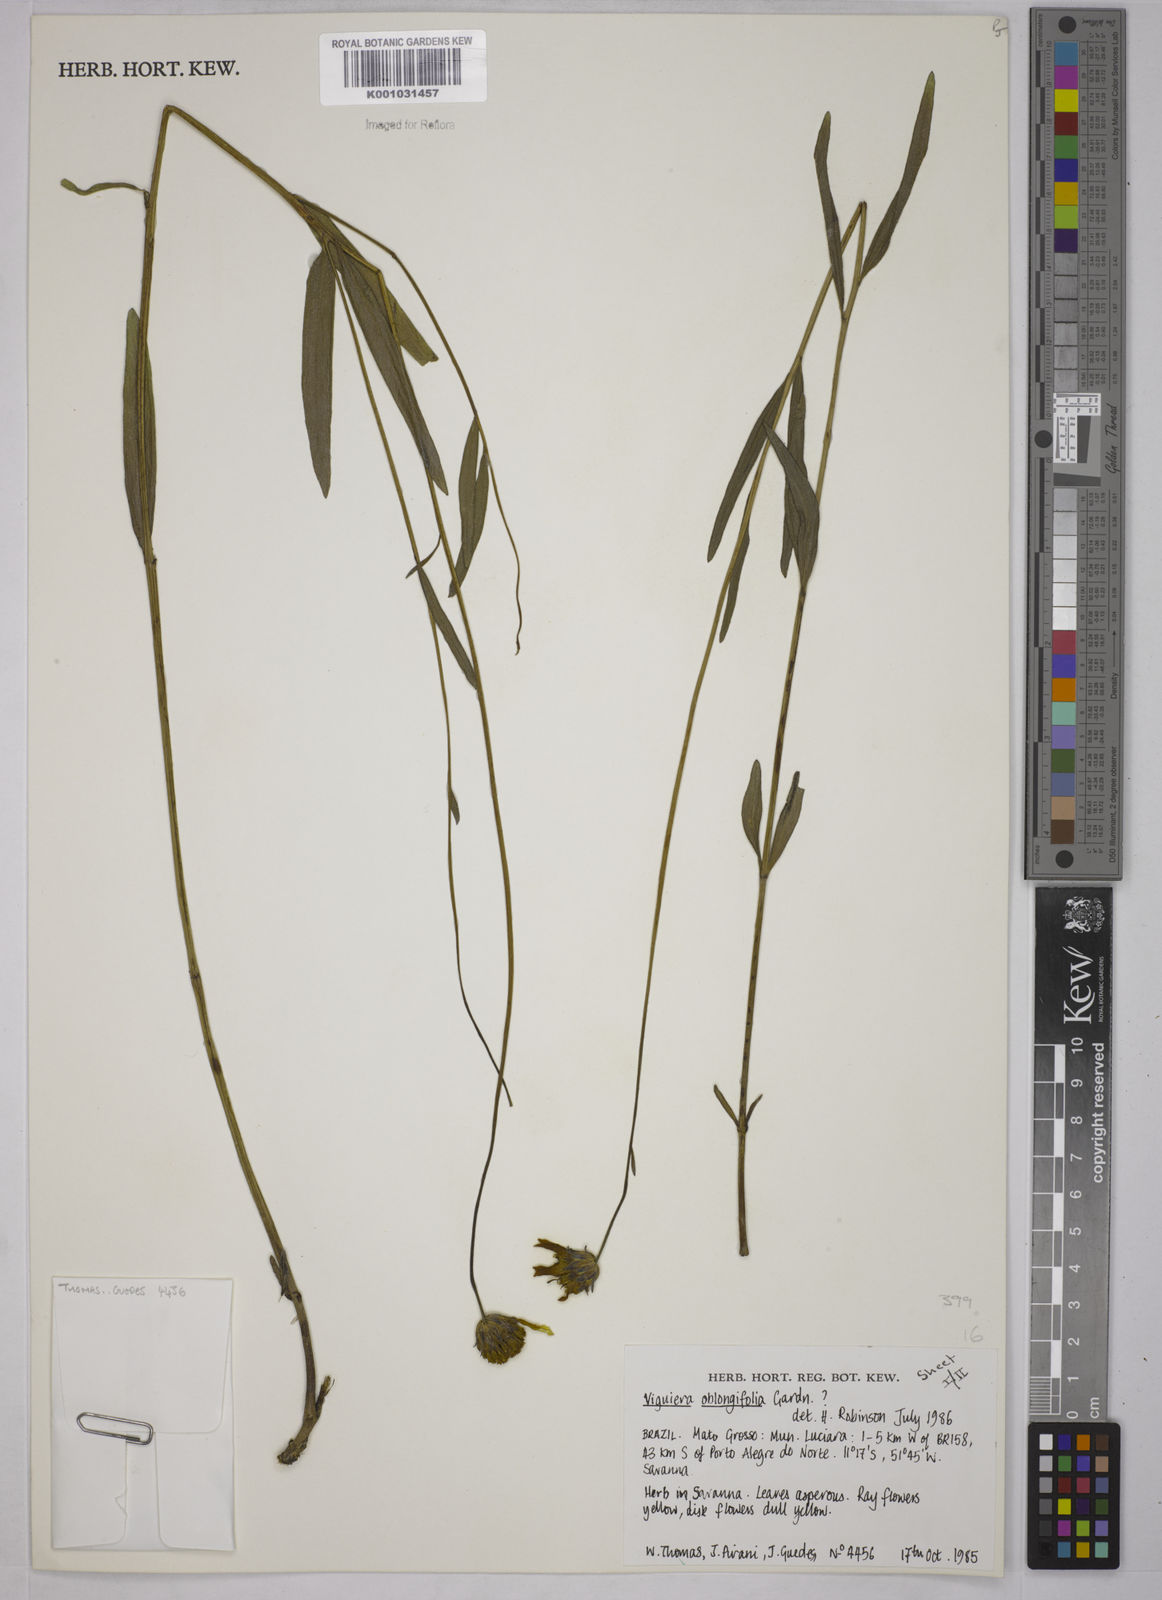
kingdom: Plantae
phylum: Tracheophyta
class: Magnoliopsida
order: Asterales
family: Asteraceae
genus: Aldama
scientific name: Aldama oblongifolia
